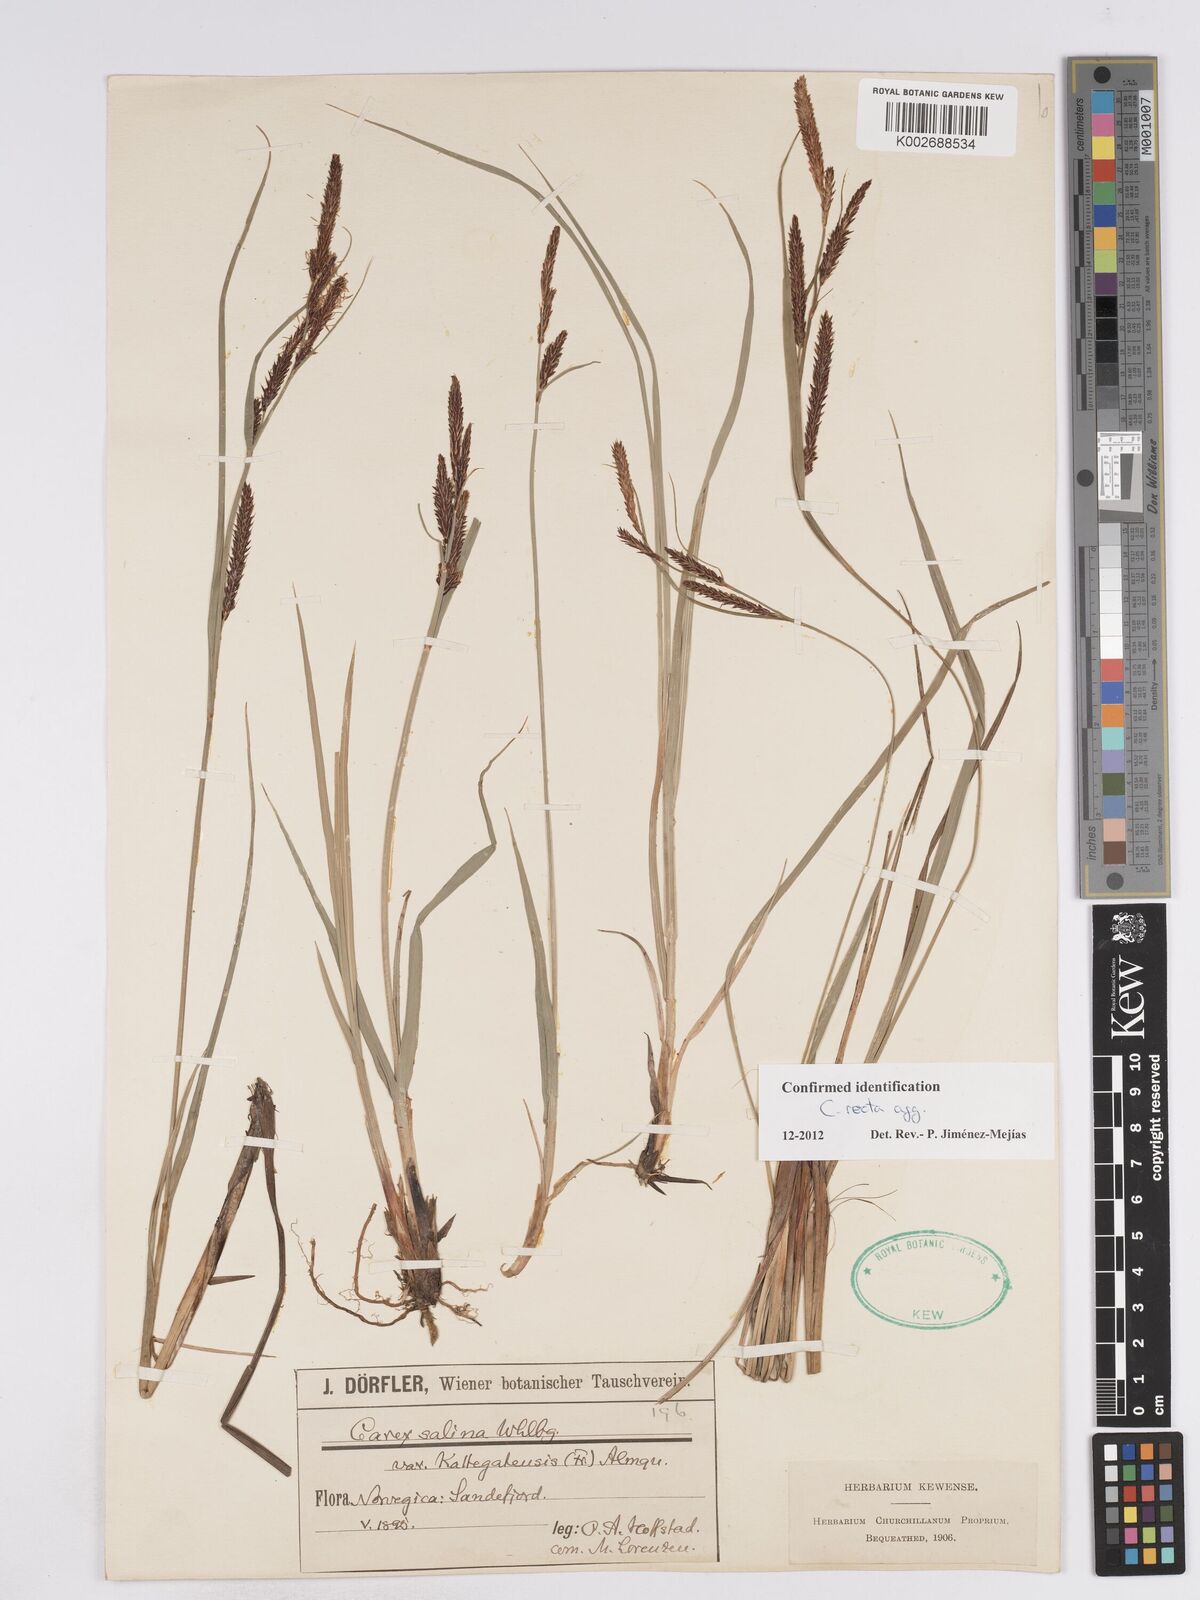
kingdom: Plantae
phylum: Tracheophyta
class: Liliopsida
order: Poales
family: Cyperaceae
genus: Carex
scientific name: Carex recta
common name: Estuarine sedge
